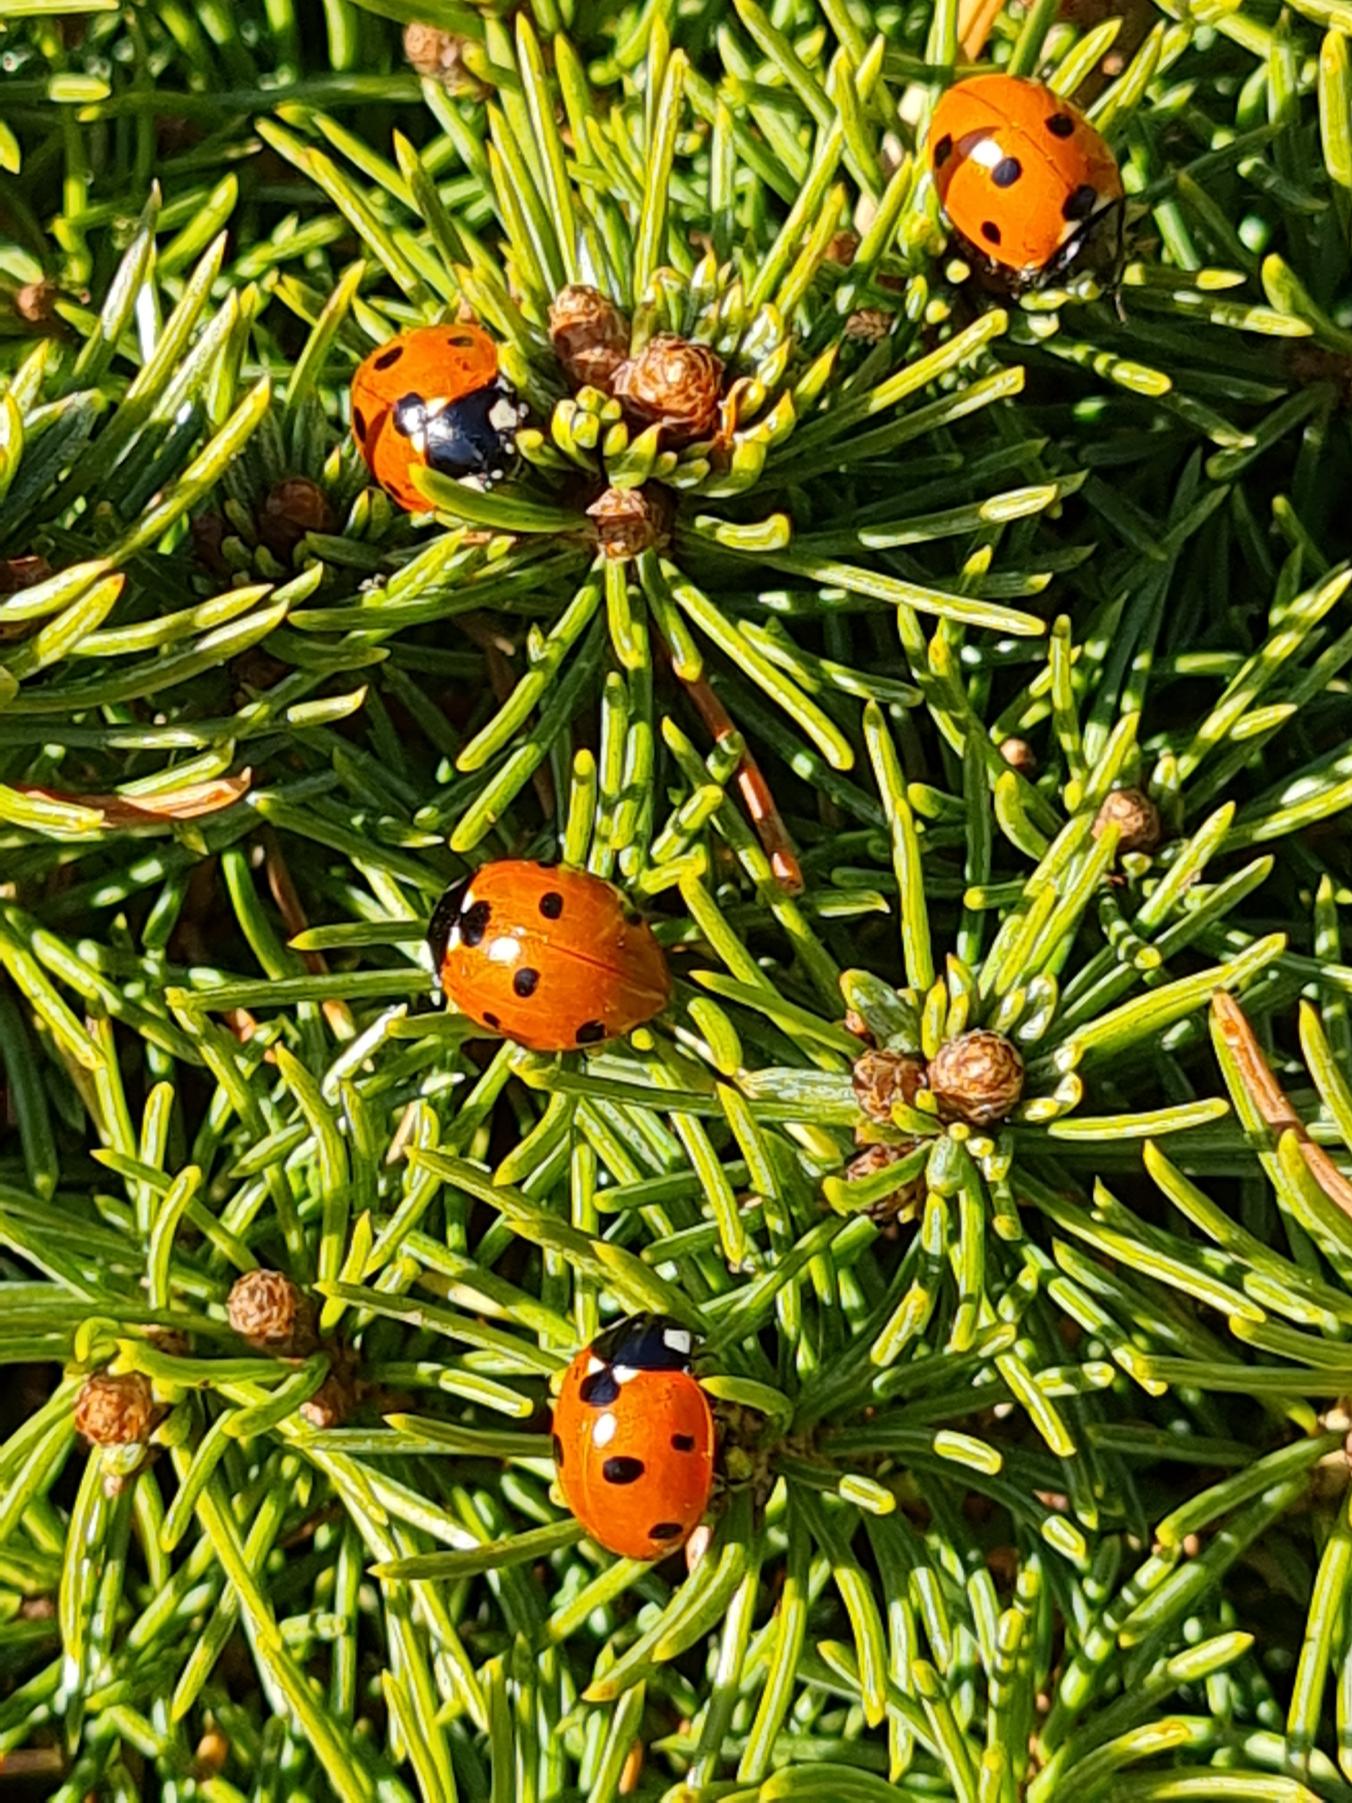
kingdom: Animalia
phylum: Arthropoda
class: Insecta
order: Coleoptera
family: Coccinellidae
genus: Coccinella
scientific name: Coccinella septempunctata
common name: Syvplettet mariehøne
